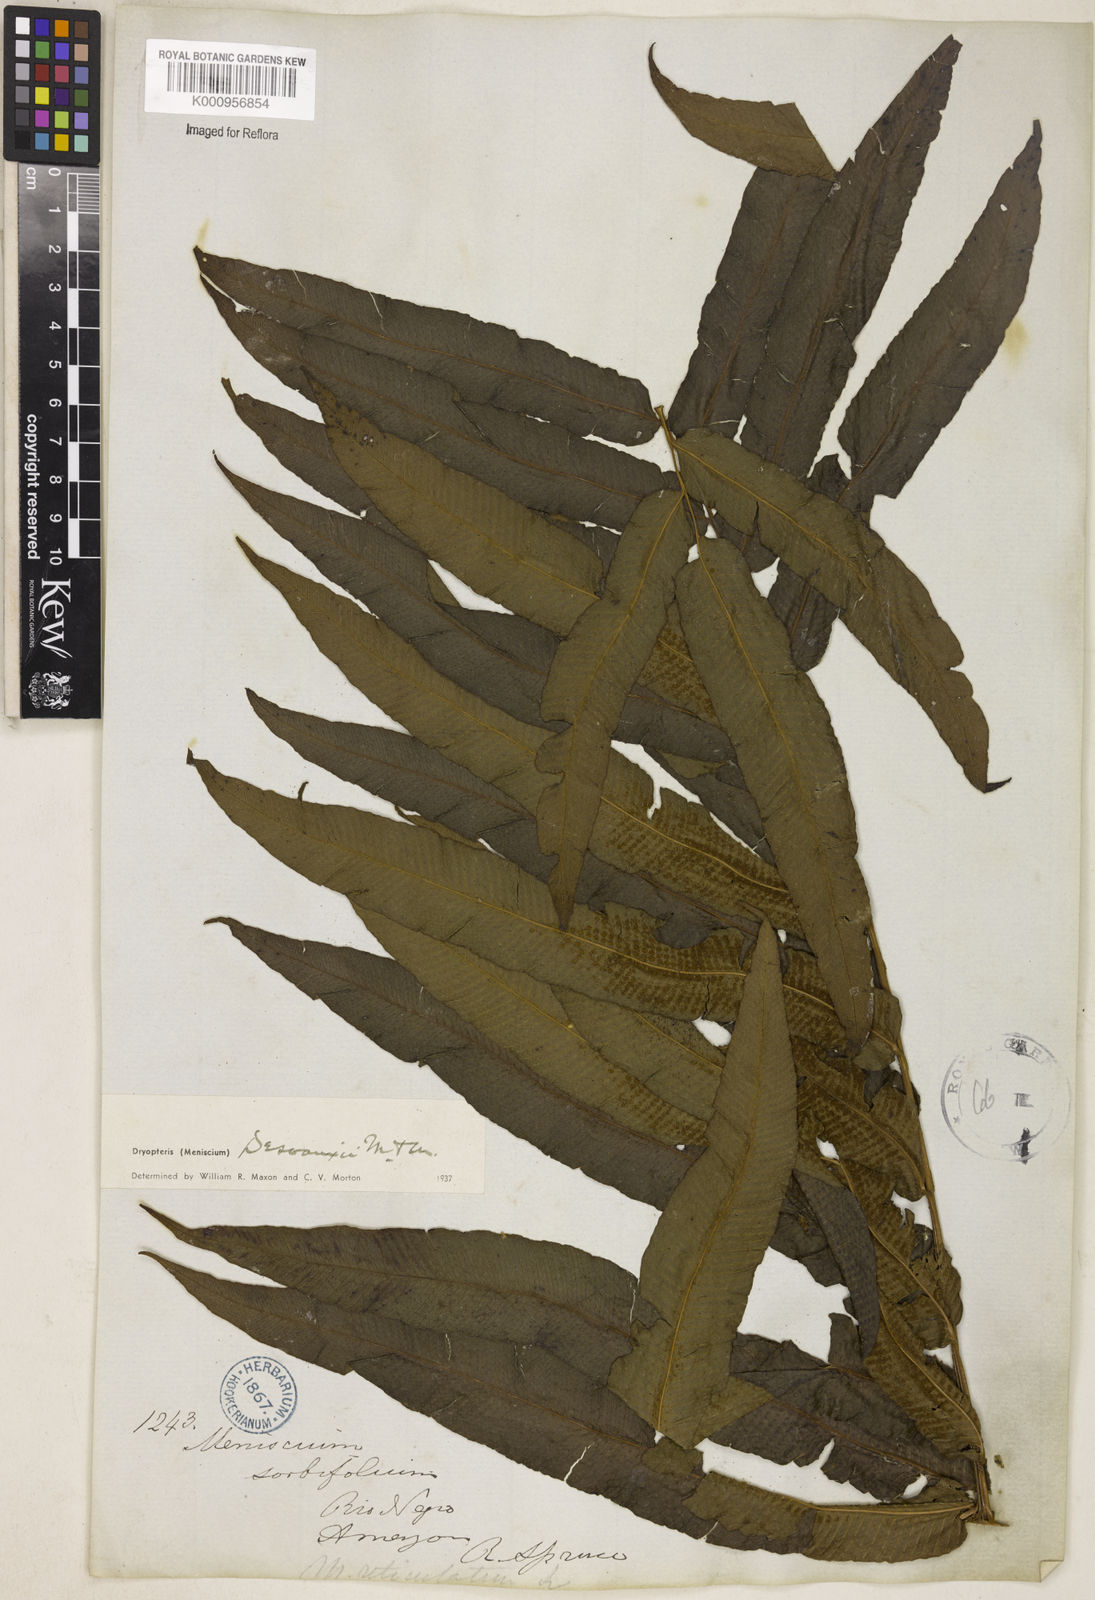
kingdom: Plantae
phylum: Tracheophyta
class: Polypodiopsida
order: Polypodiales
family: Thelypteridaceae
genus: Meniscium
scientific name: Meniscium arborescens
